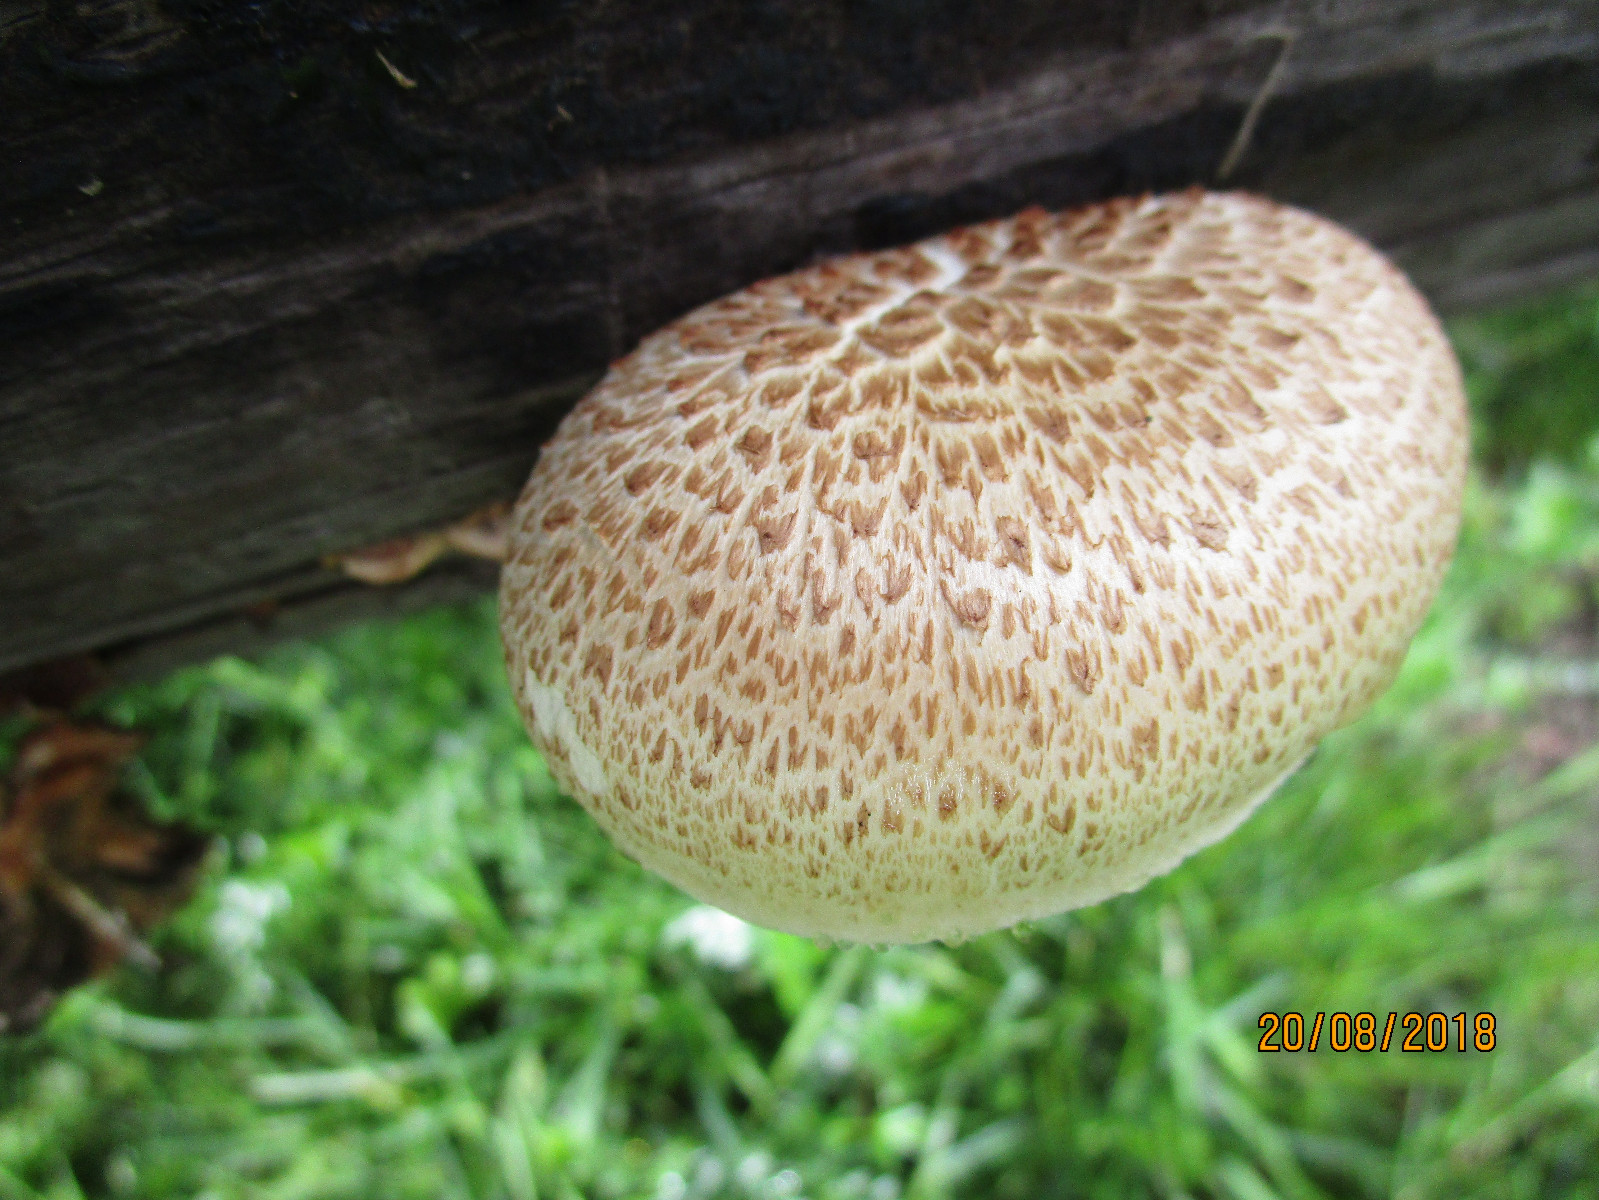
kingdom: Fungi
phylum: Basidiomycota
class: Agaricomycetes
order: Gloeophyllales
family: Gloeophyllaceae
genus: Neolentinus
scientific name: Neolentinus lepideus
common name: skællet sejhat
